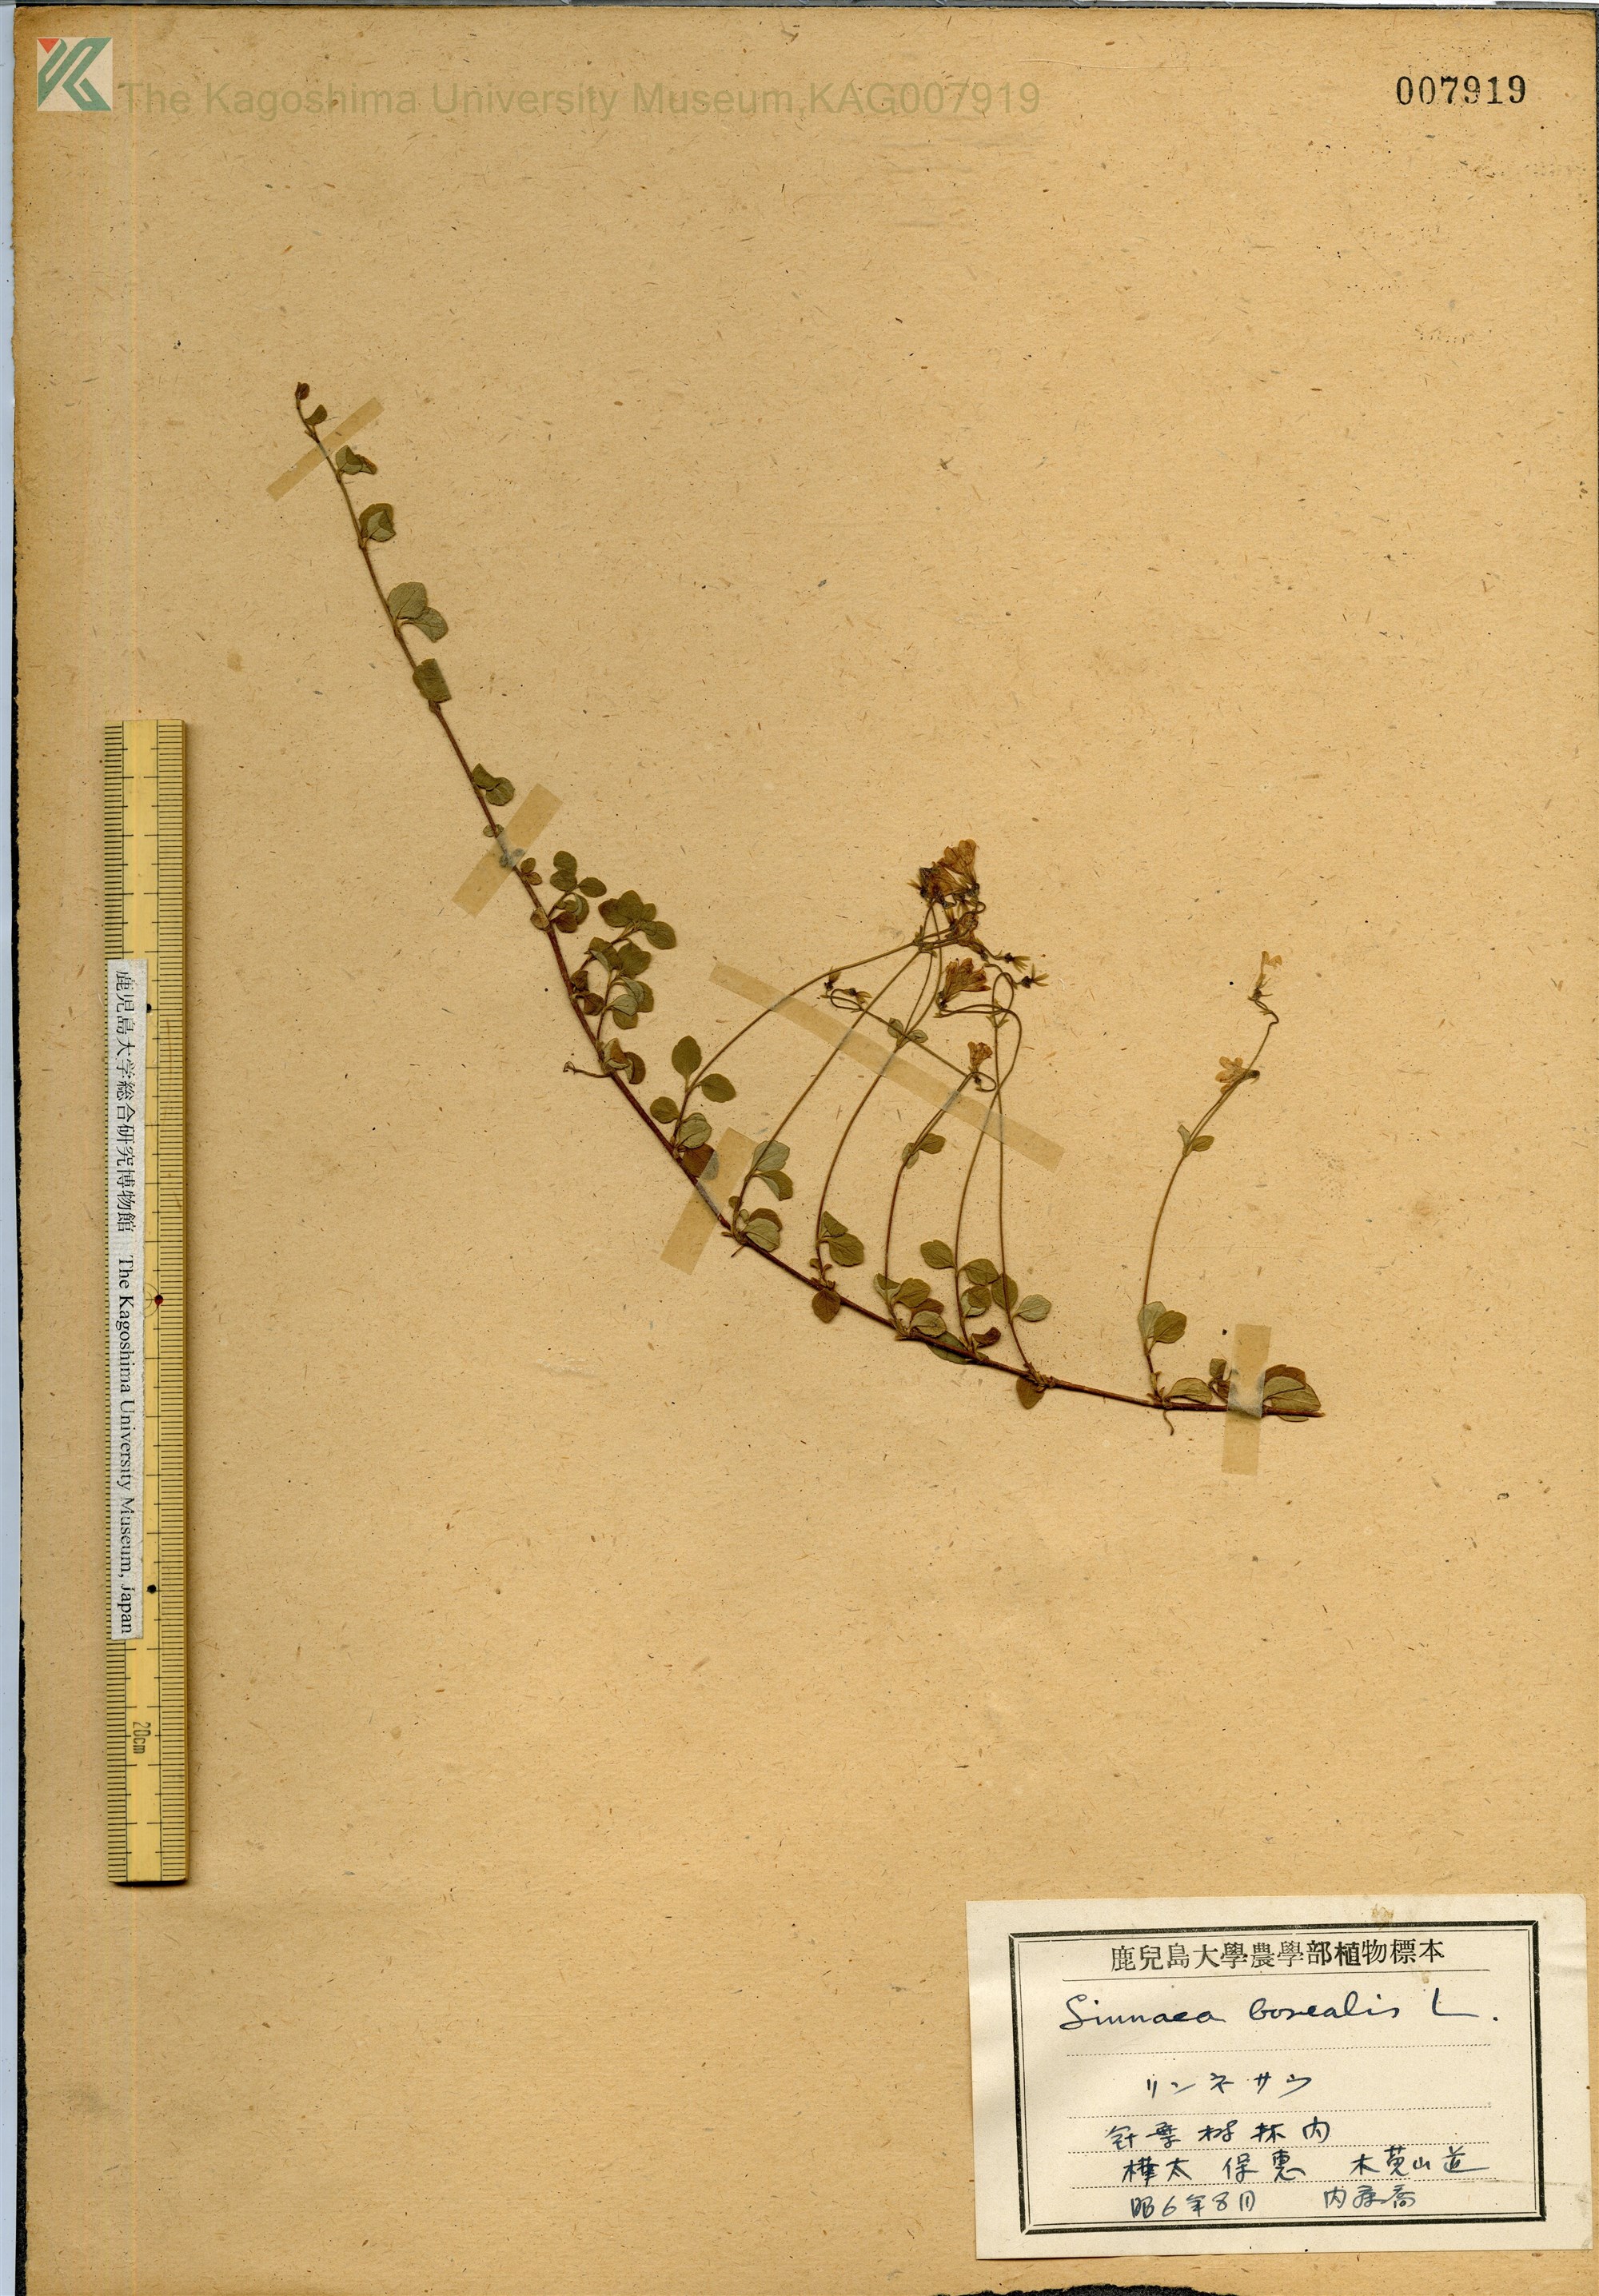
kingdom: Plantae
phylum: Tracheophyta
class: Magnoliopsida
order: Dipsacales
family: Caprifoliaceae
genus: Linnaea
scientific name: Linnaea borealis
